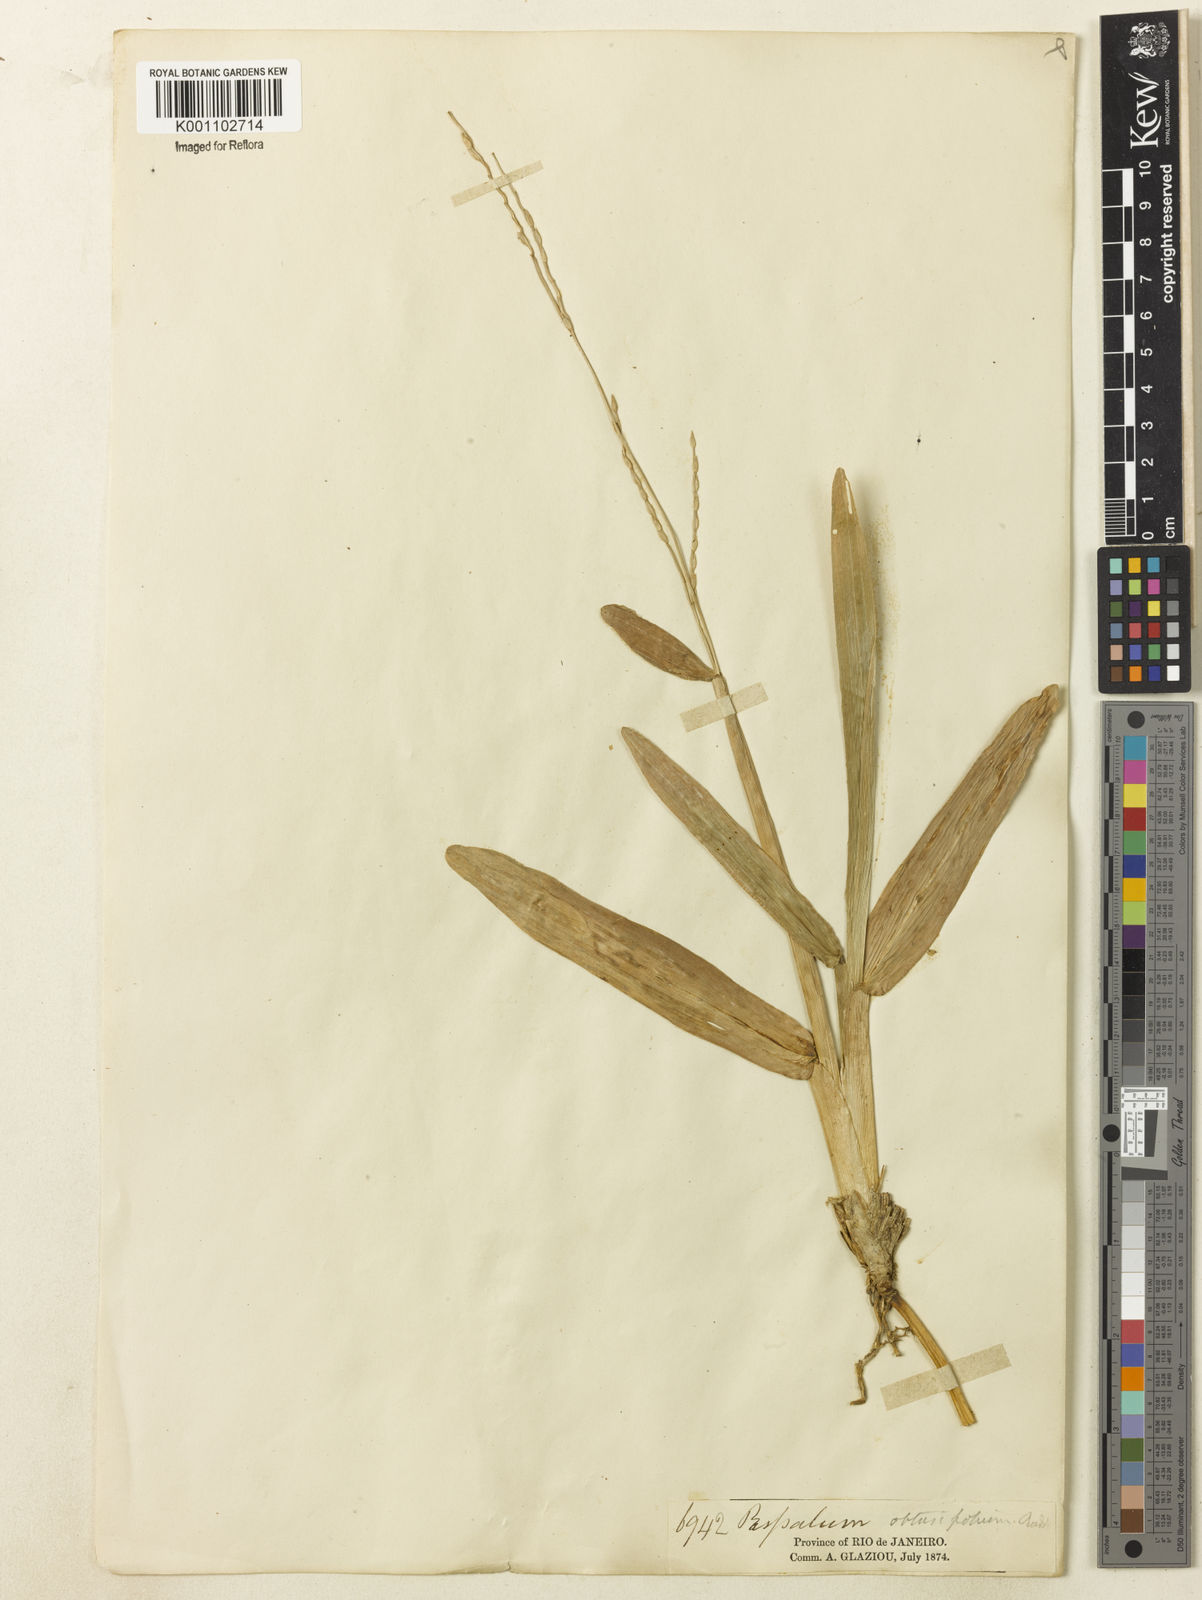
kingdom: Plantae
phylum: Tracheophyta
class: Liliopsida
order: Poales
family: Poaceae
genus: Axonopus
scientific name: Axonopus furcatus
